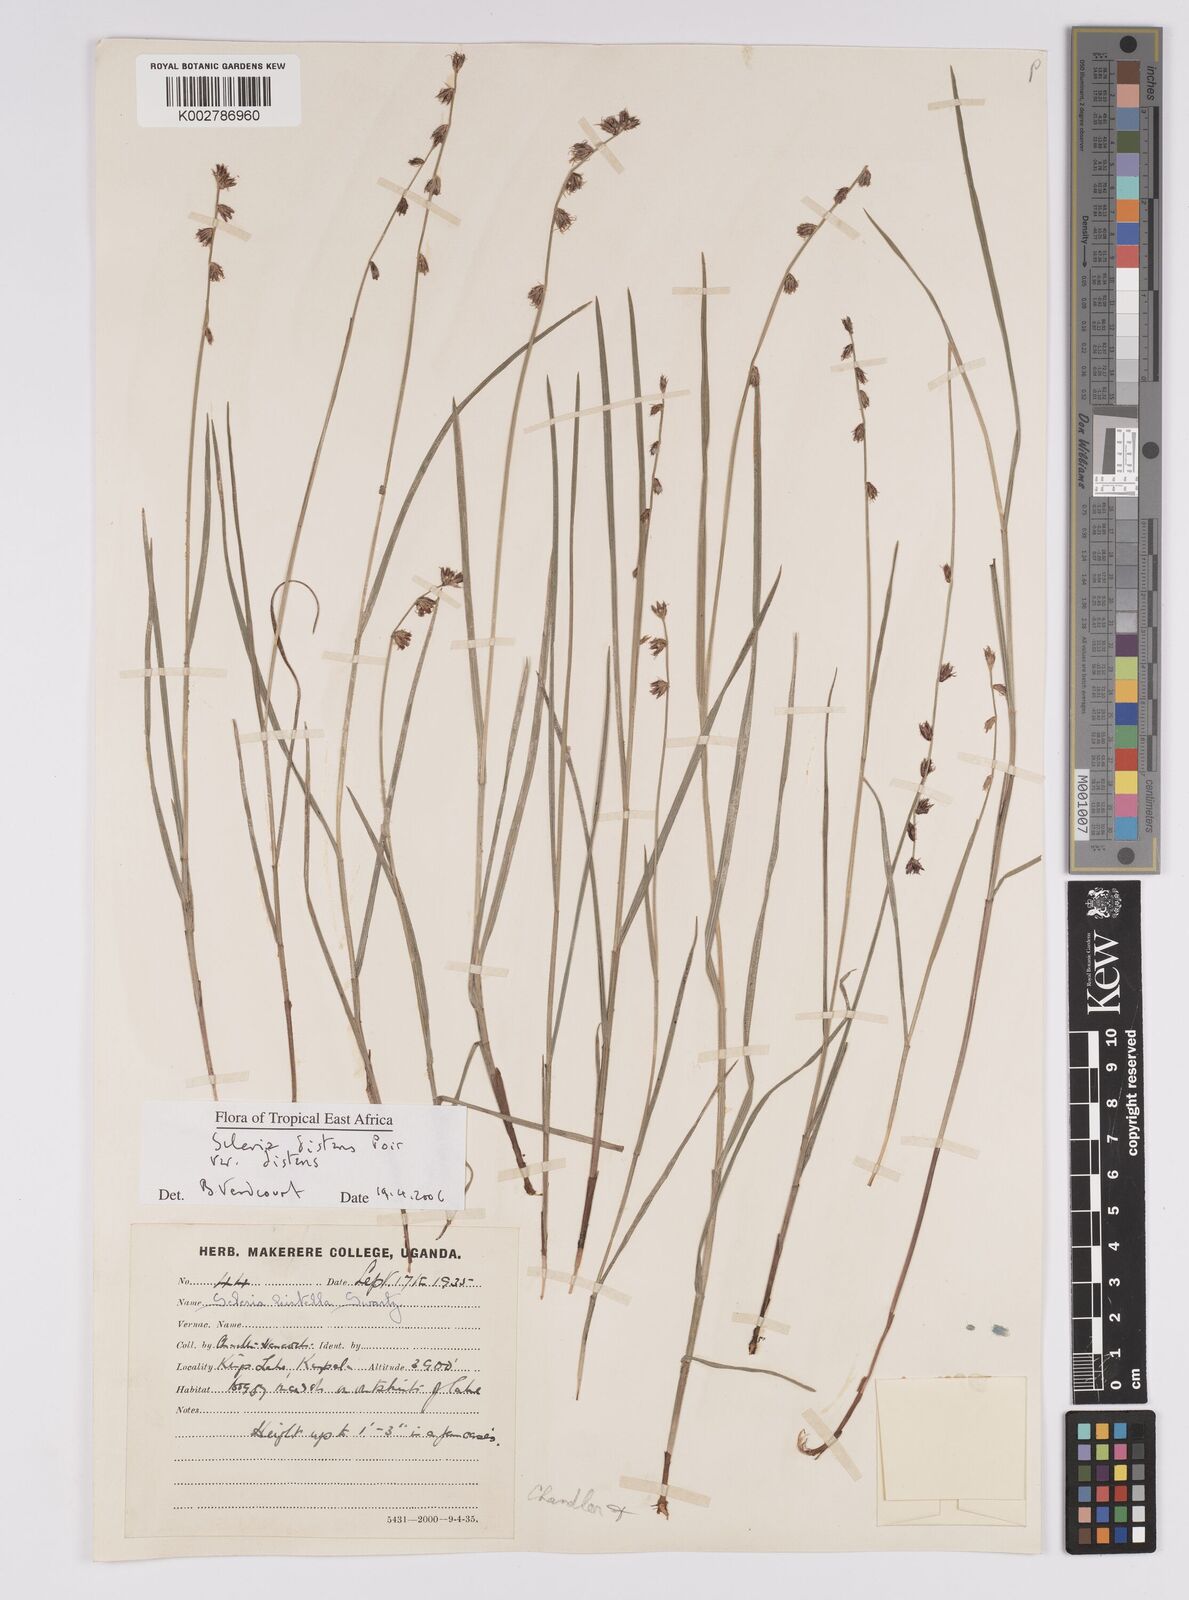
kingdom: Plantae
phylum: Tracheophyta
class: Liliopsida
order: Poales
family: Cyperaceae
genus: Scleria
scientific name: Scleria
